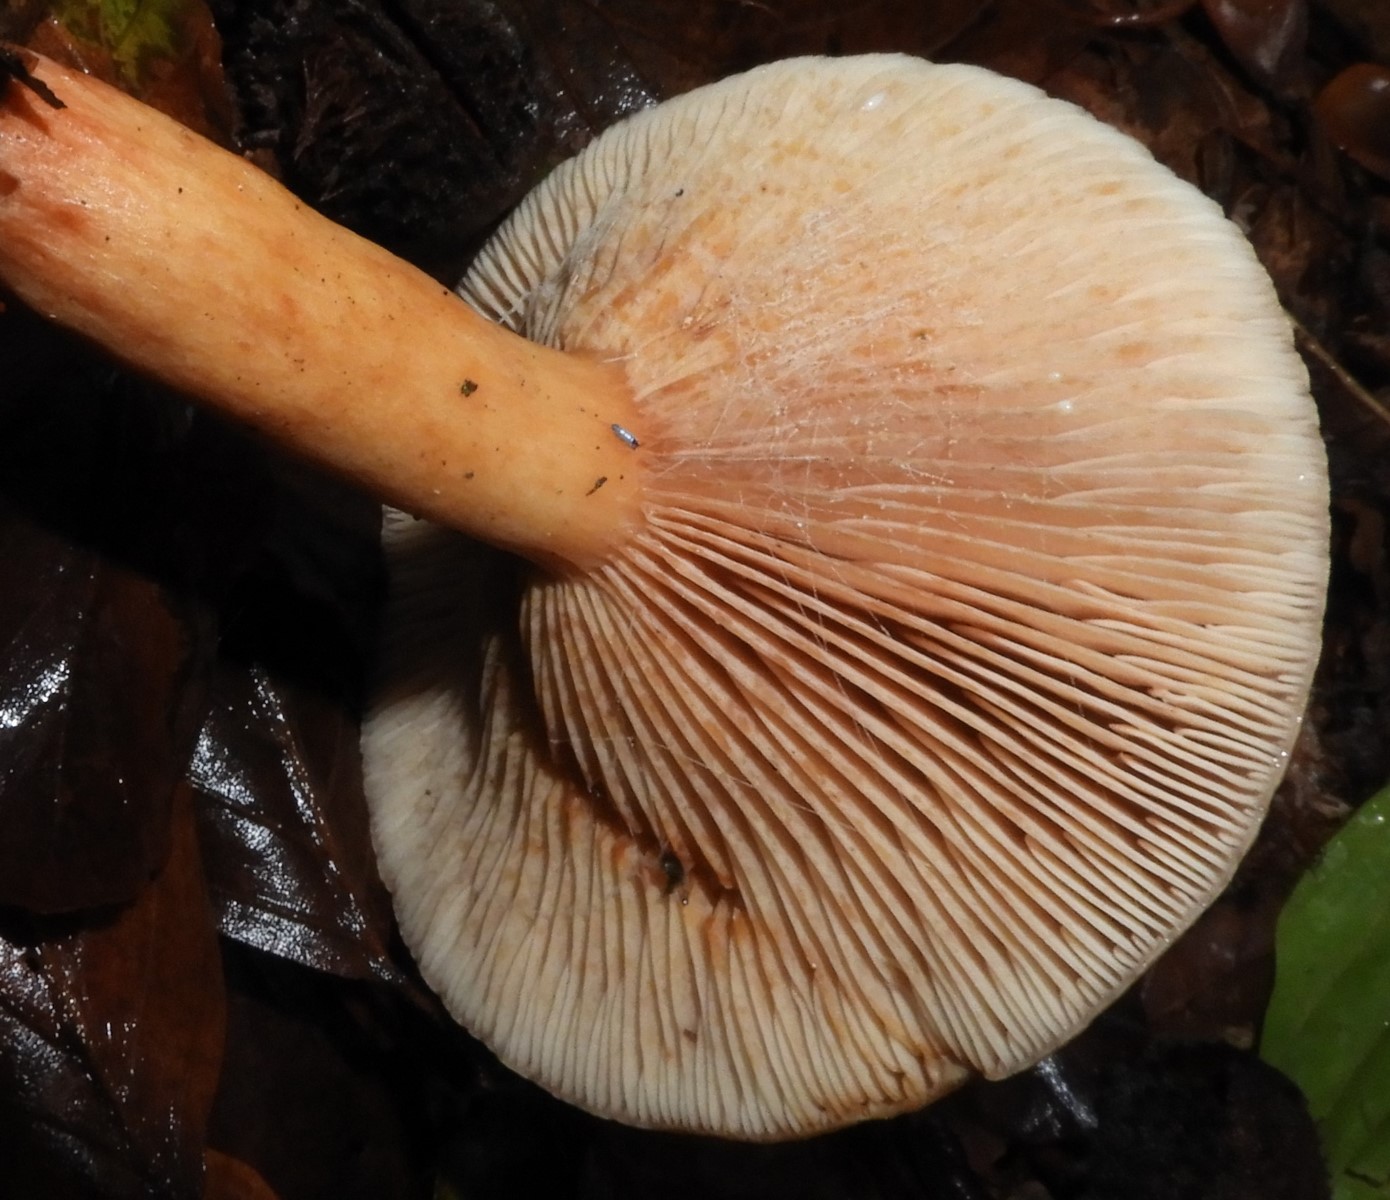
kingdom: Fungi
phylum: Basidiomycota
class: Agaricomycetes
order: Russulales
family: Russulaceae
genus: Lactarius
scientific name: Lactarius subdulcis
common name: sødlig mælkehat
